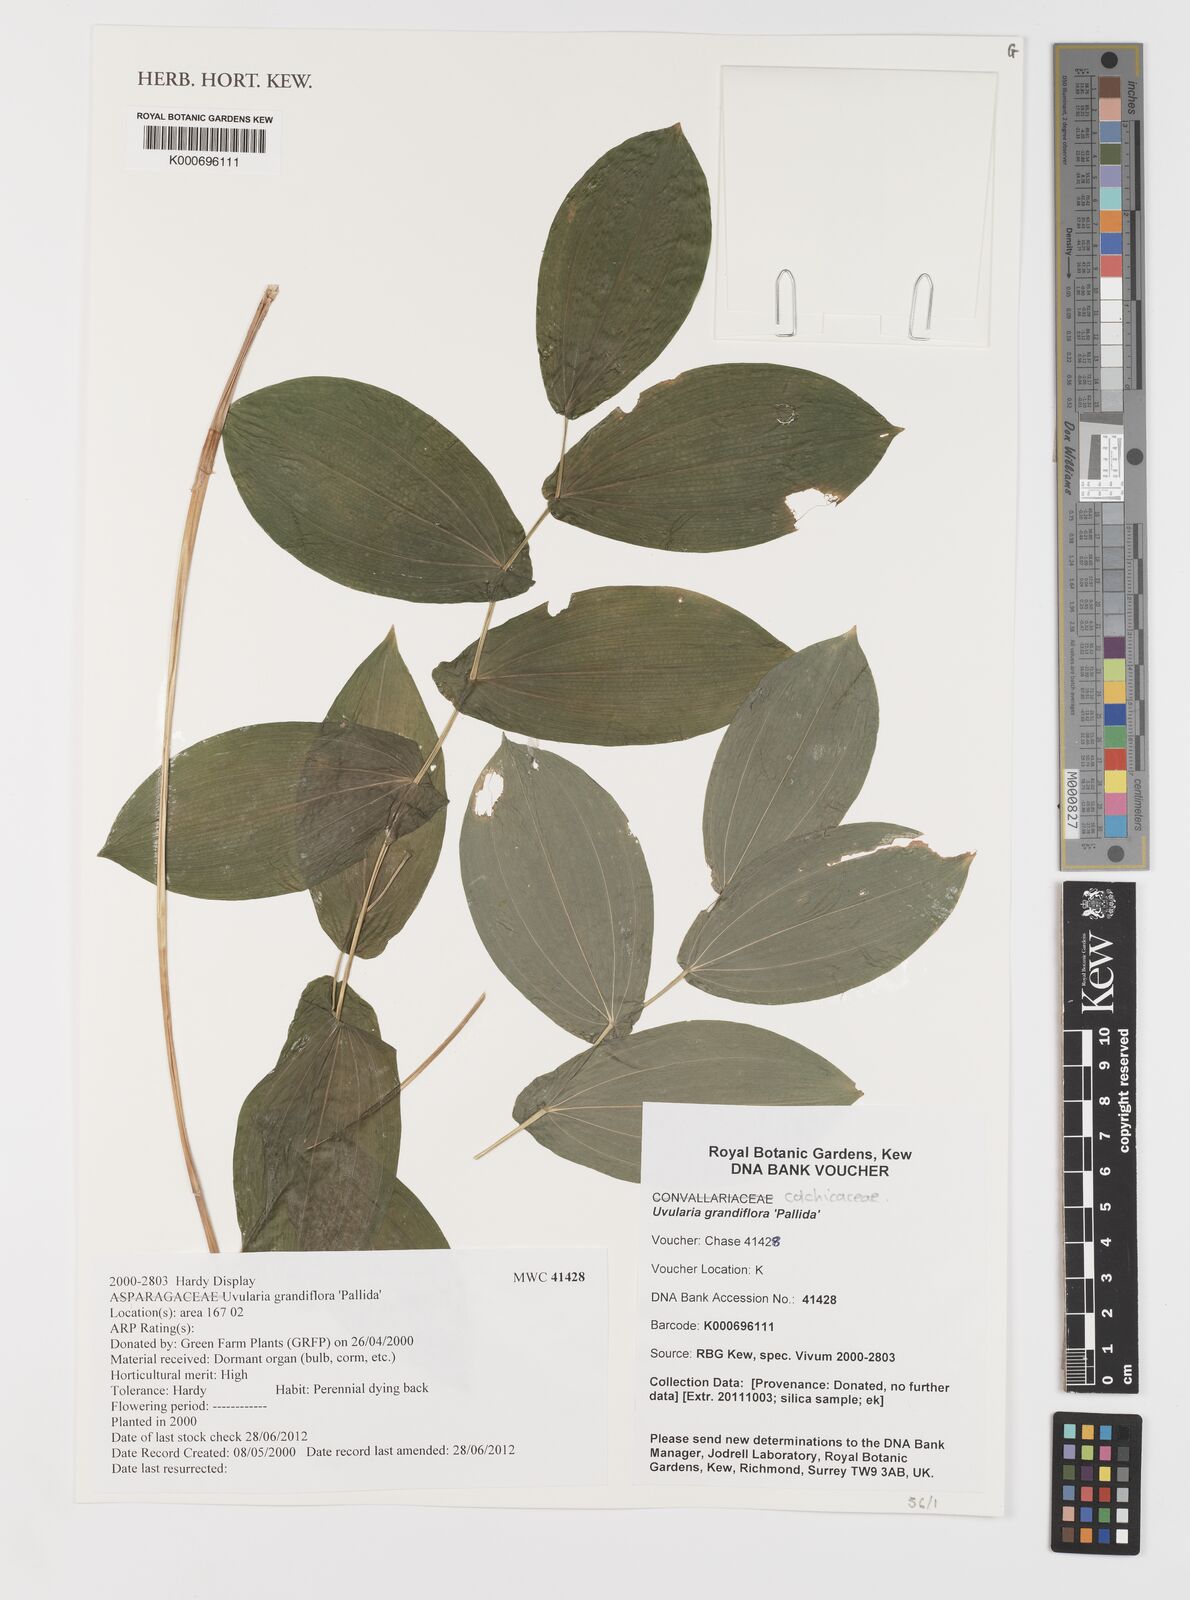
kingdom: Plantae
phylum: Tracheophyta
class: Liliopsida
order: Liliales
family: Colchicaceae
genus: Uvularia
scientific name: Uvularia grandiflora
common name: Bellwort
